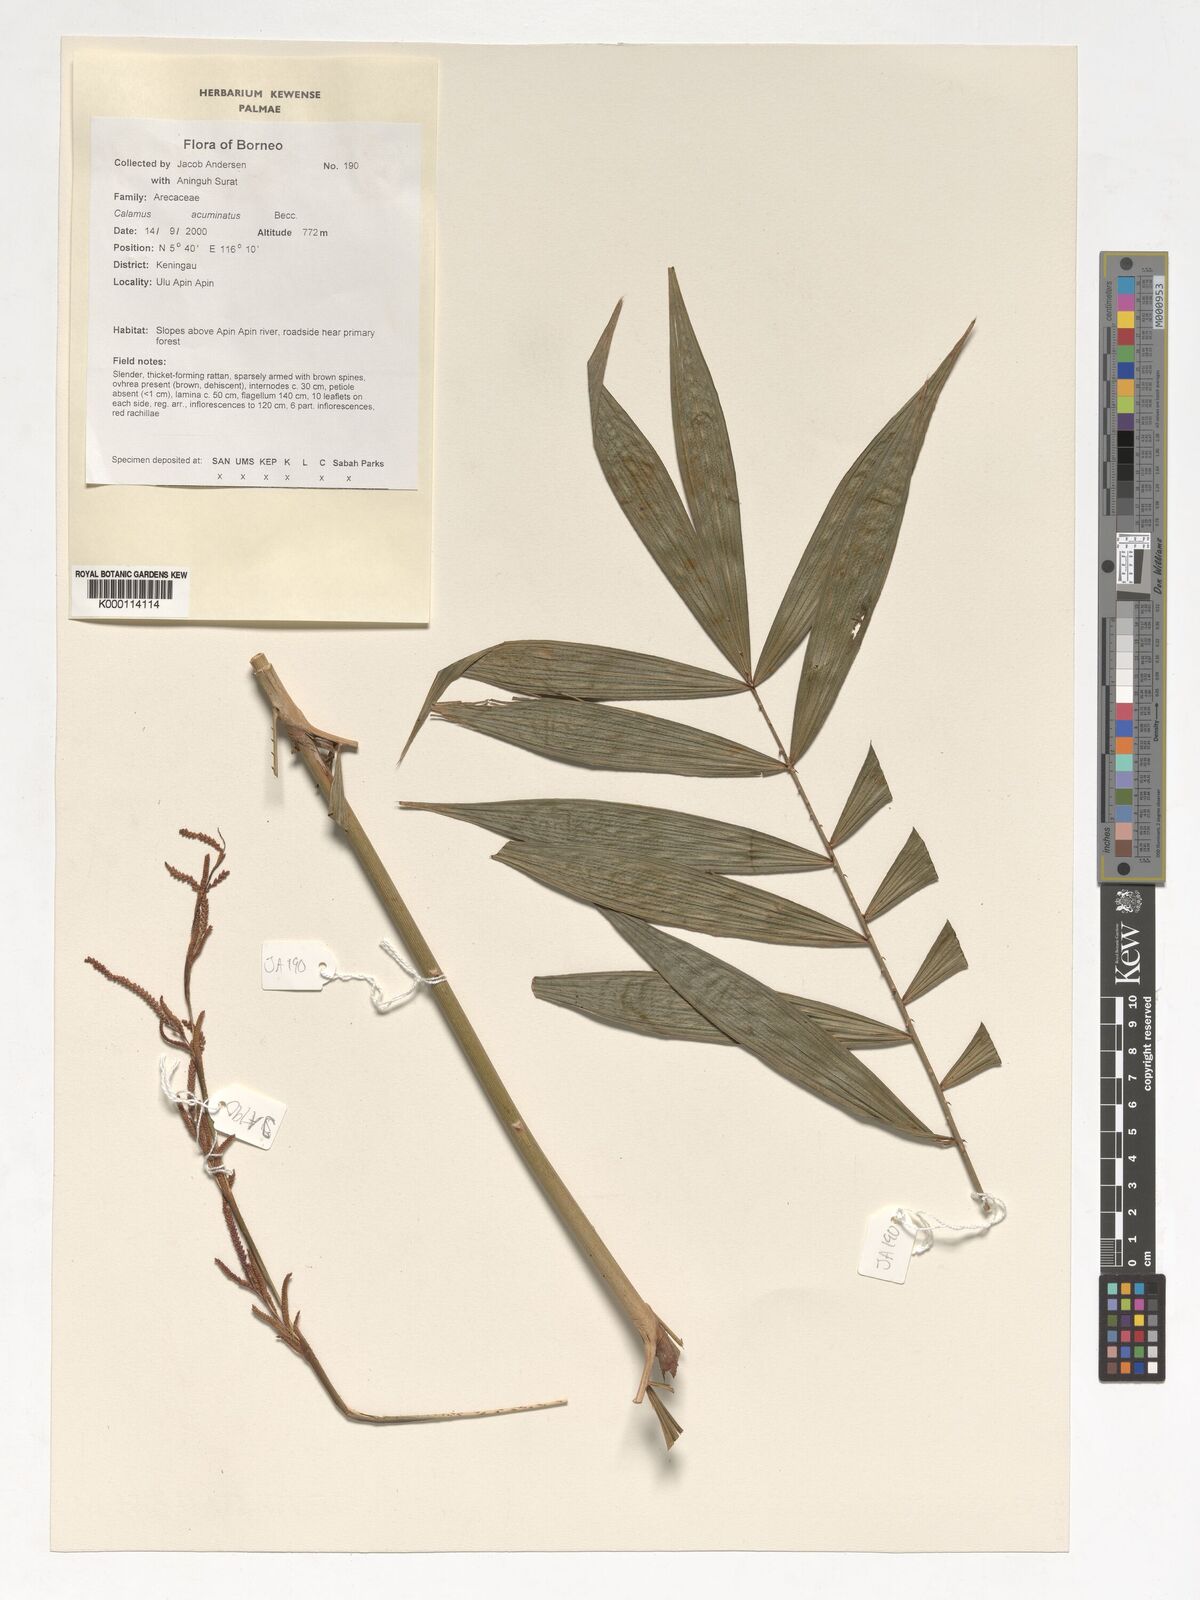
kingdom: Plantae
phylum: Tracheophyta
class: Liliopsida
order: Arecales
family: Arecaceae
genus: Calamus
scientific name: Calamus javensis
